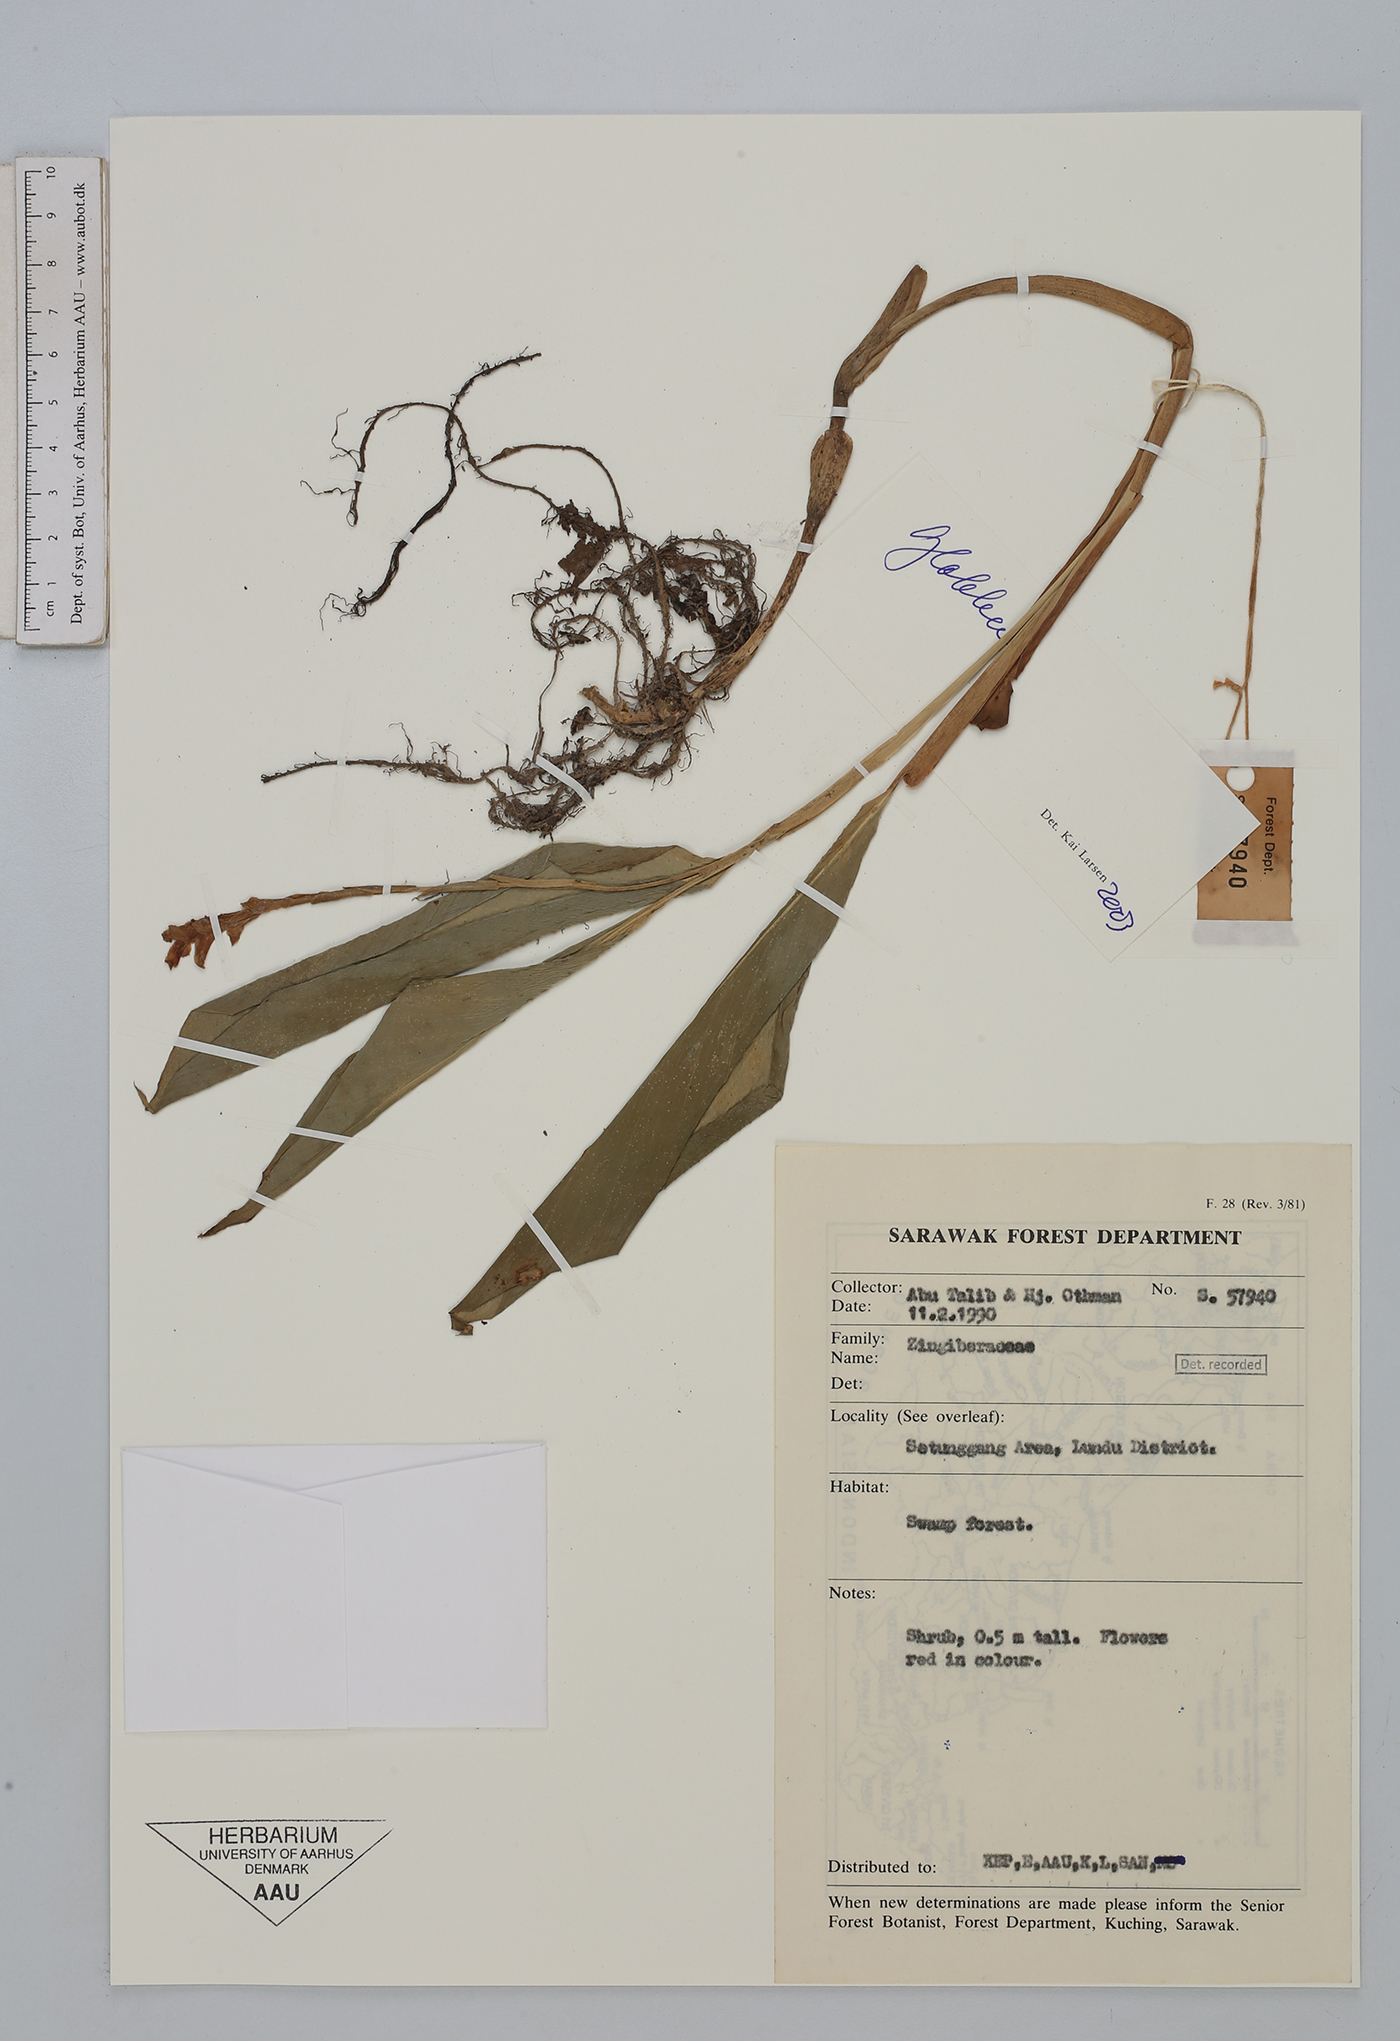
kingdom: Plantae
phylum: Tracheophyta
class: Liliopsida
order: Zingiberales
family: Zingiberaceae
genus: Globba
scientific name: Globba
